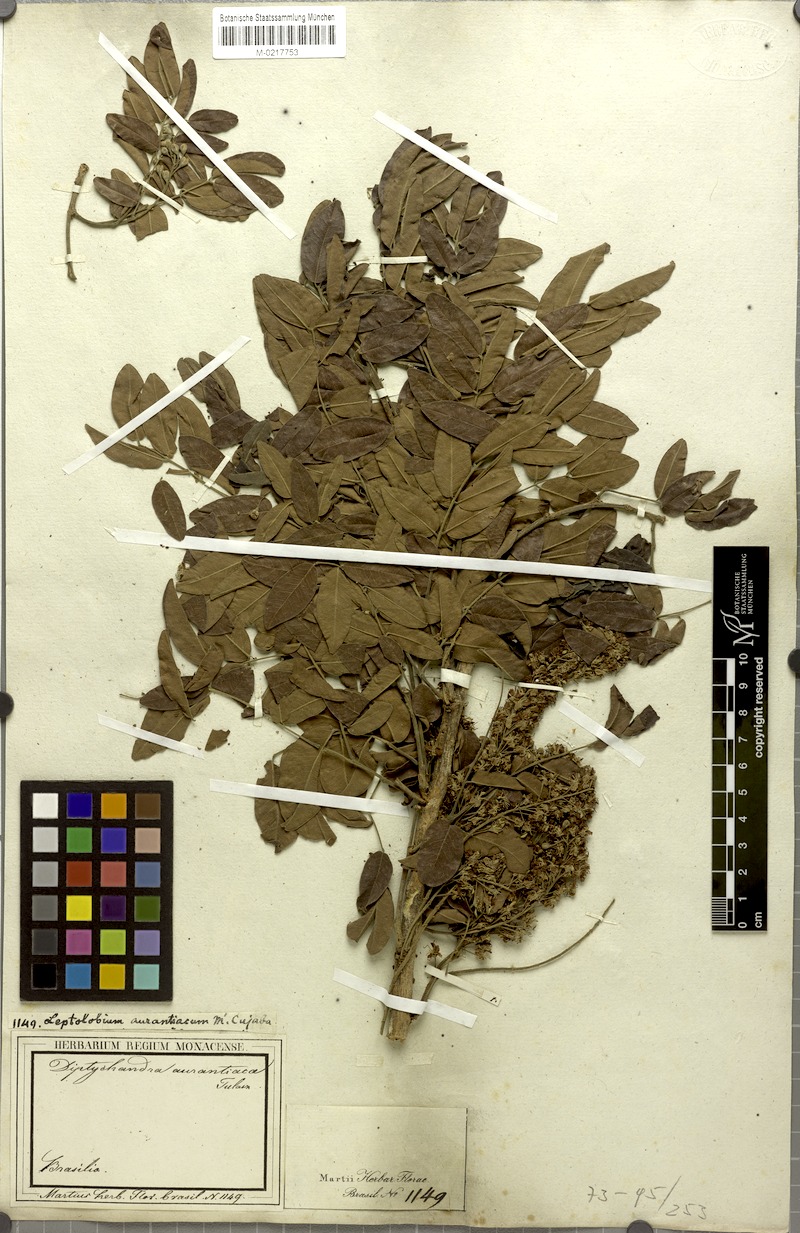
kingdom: Plantae
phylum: Tracheophyta
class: Magnoliopsida
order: Fabales
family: Fabaceae
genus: Diptychandra
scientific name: Diptychandra aurantiaca
